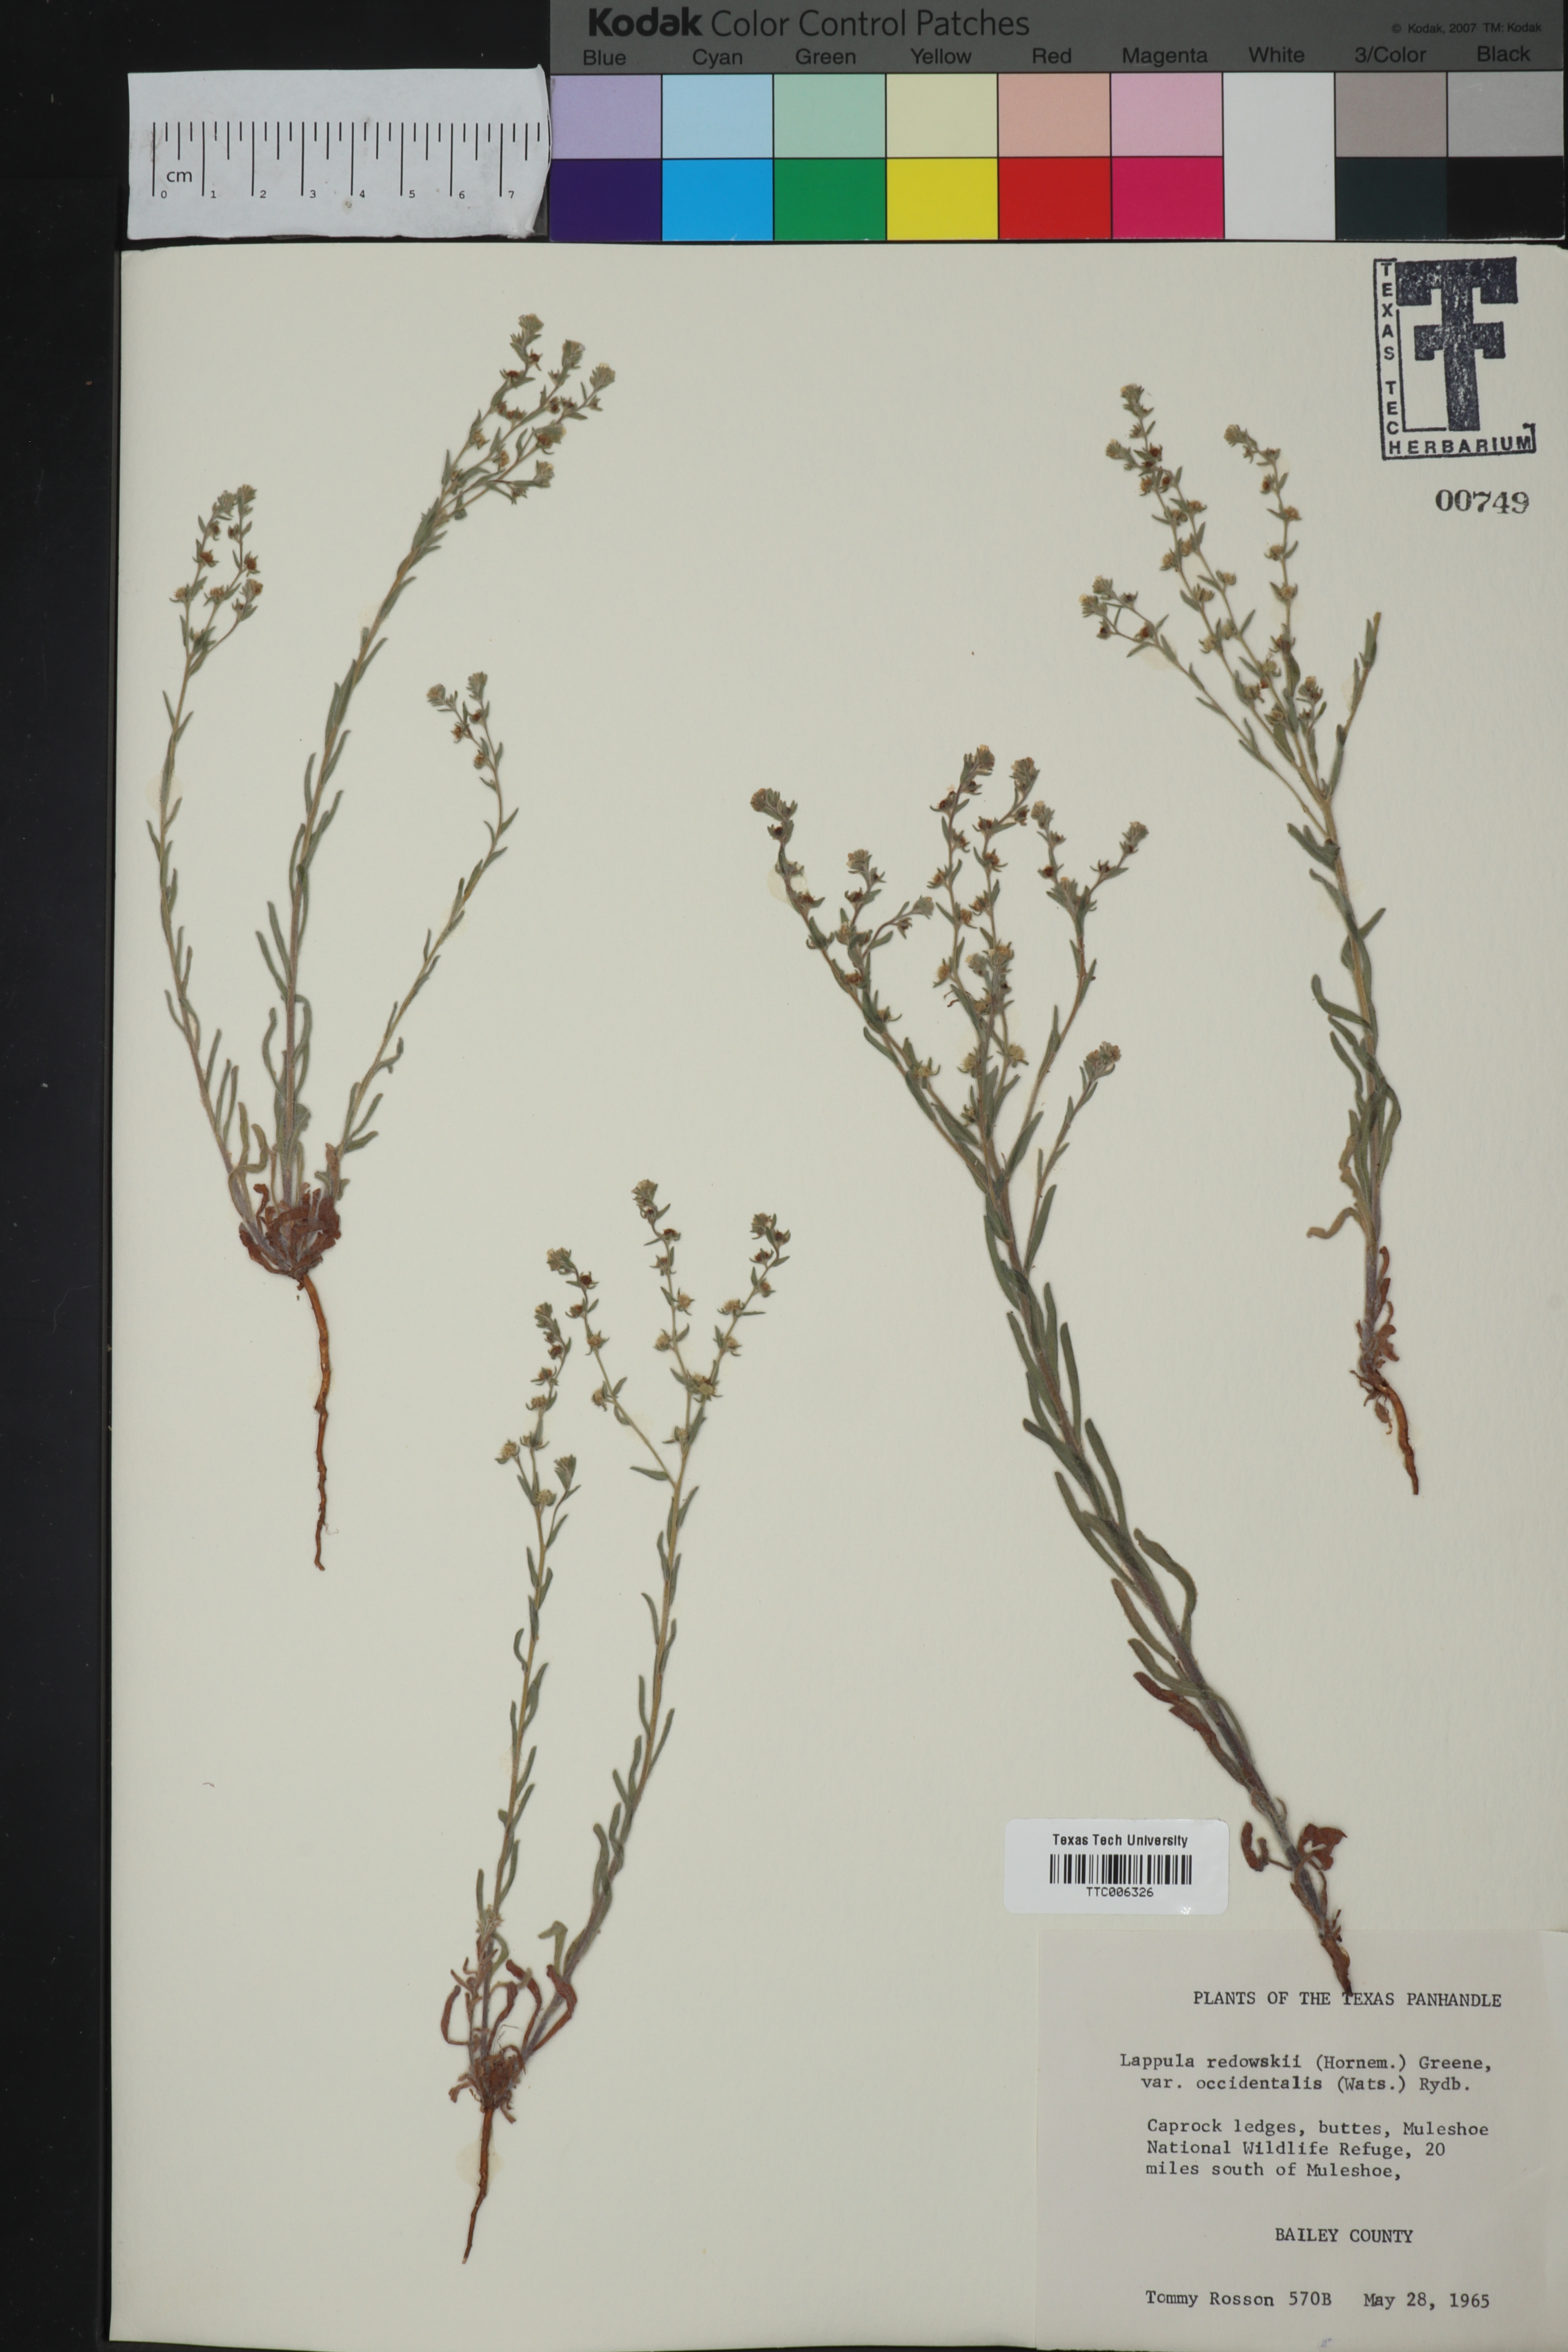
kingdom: Plantae
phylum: Tracheophyta
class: Magnoliopsida
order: Boraginales
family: Boraginaceae
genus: Lappula
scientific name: Lappula occidentalis
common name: Western stickseed
